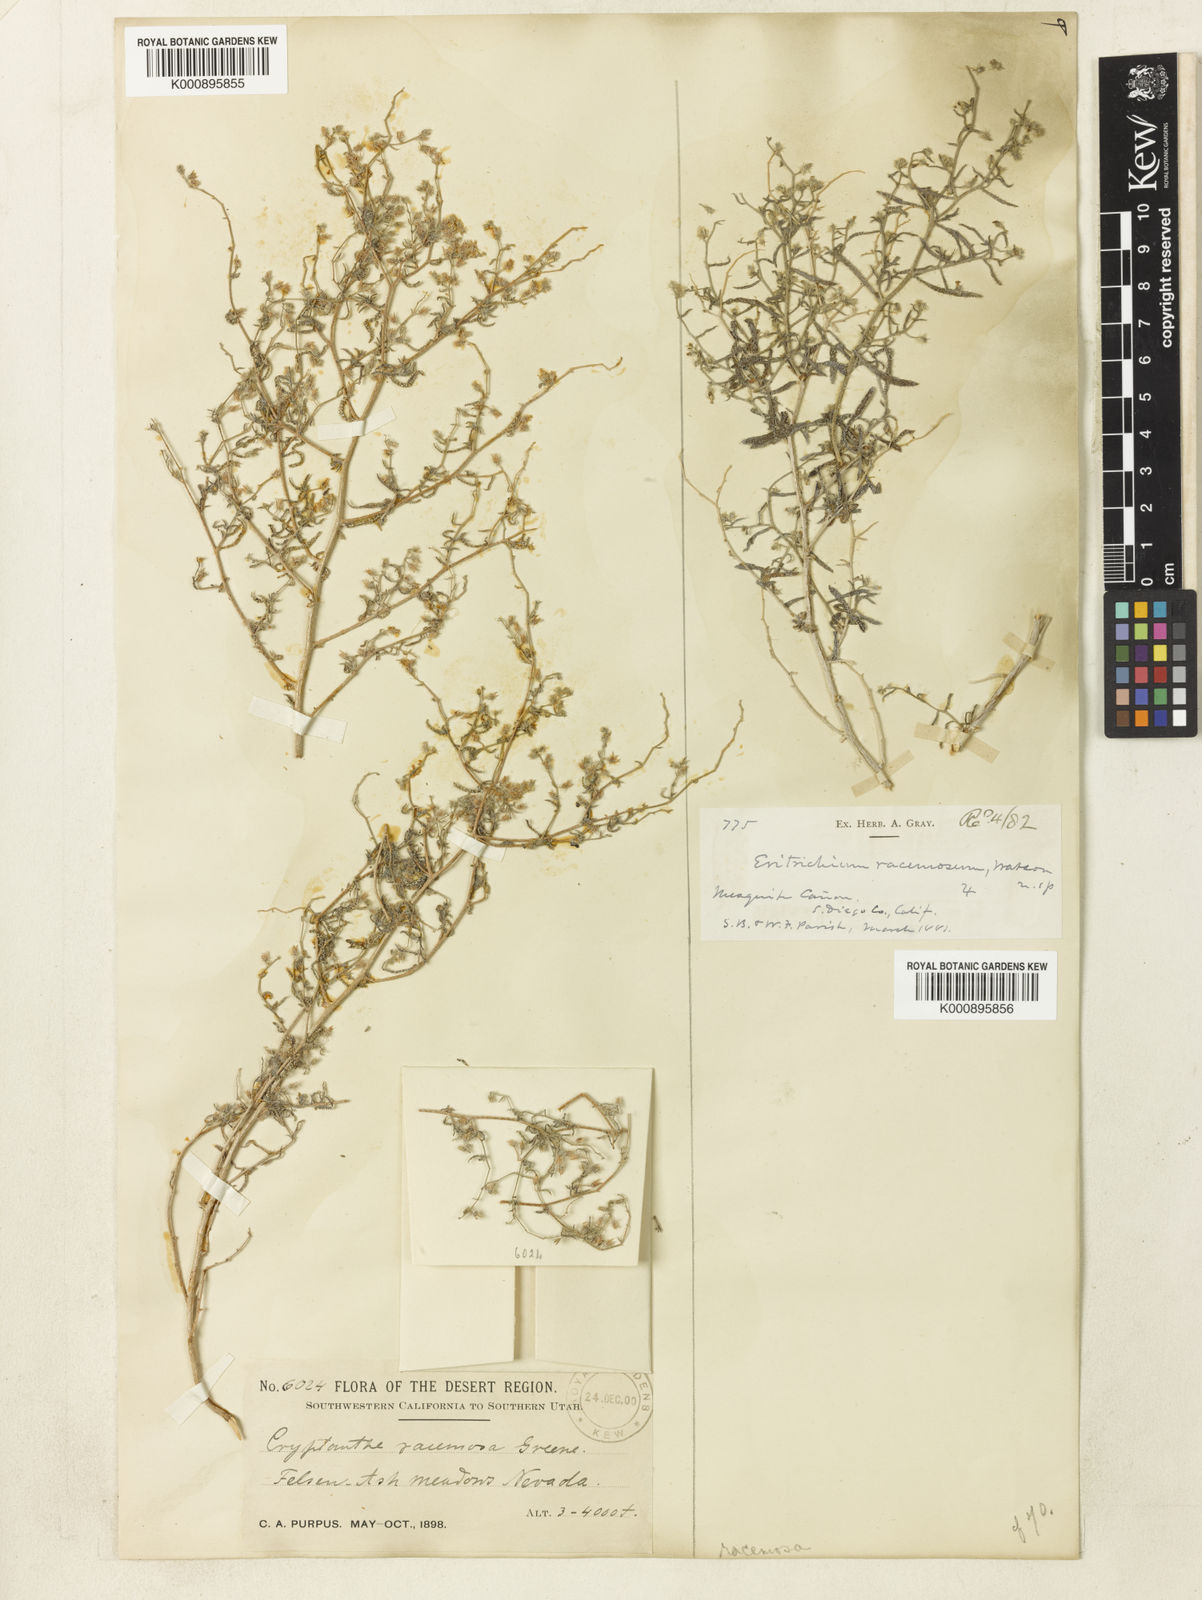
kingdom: Plantae
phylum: Tracheophyta
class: Magnoliopsida
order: Boraginales
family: Boraginaceae
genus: Johnstonella
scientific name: Johnstonella racemosa
